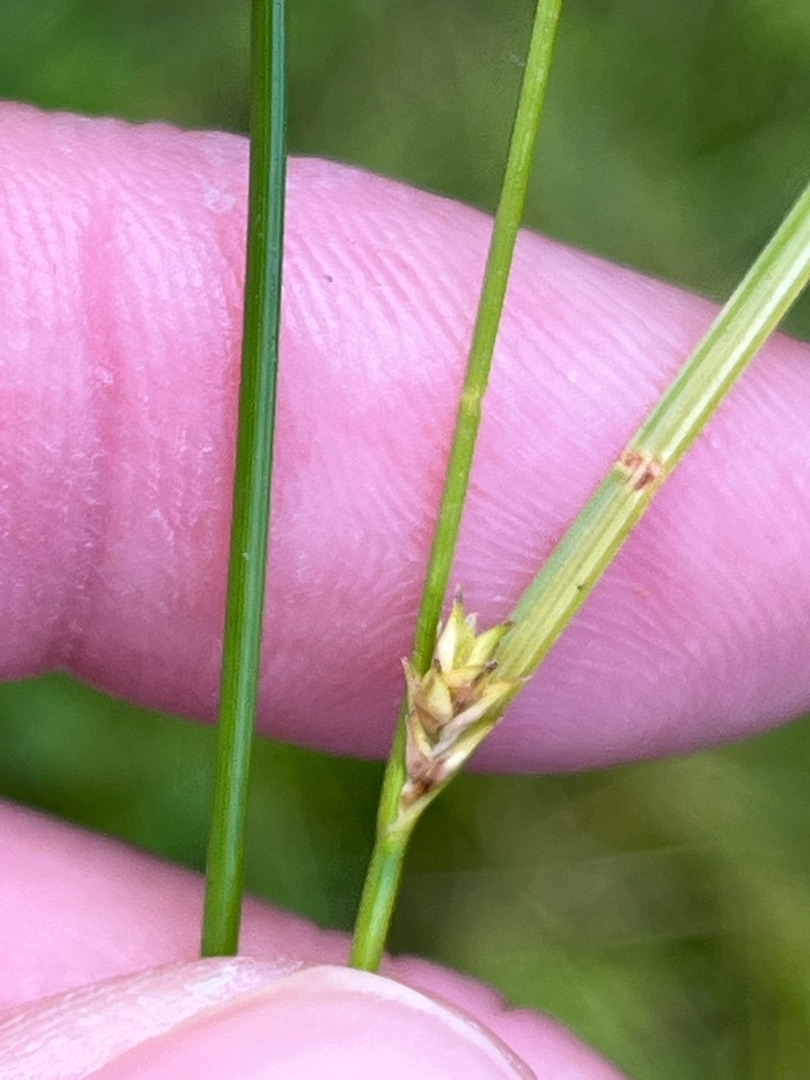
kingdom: Plantae
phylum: Tracheophyta
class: Liliopsida
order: Poales
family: Cyperaceae
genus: Carex
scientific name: Carex remota
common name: Akselblomstret star
